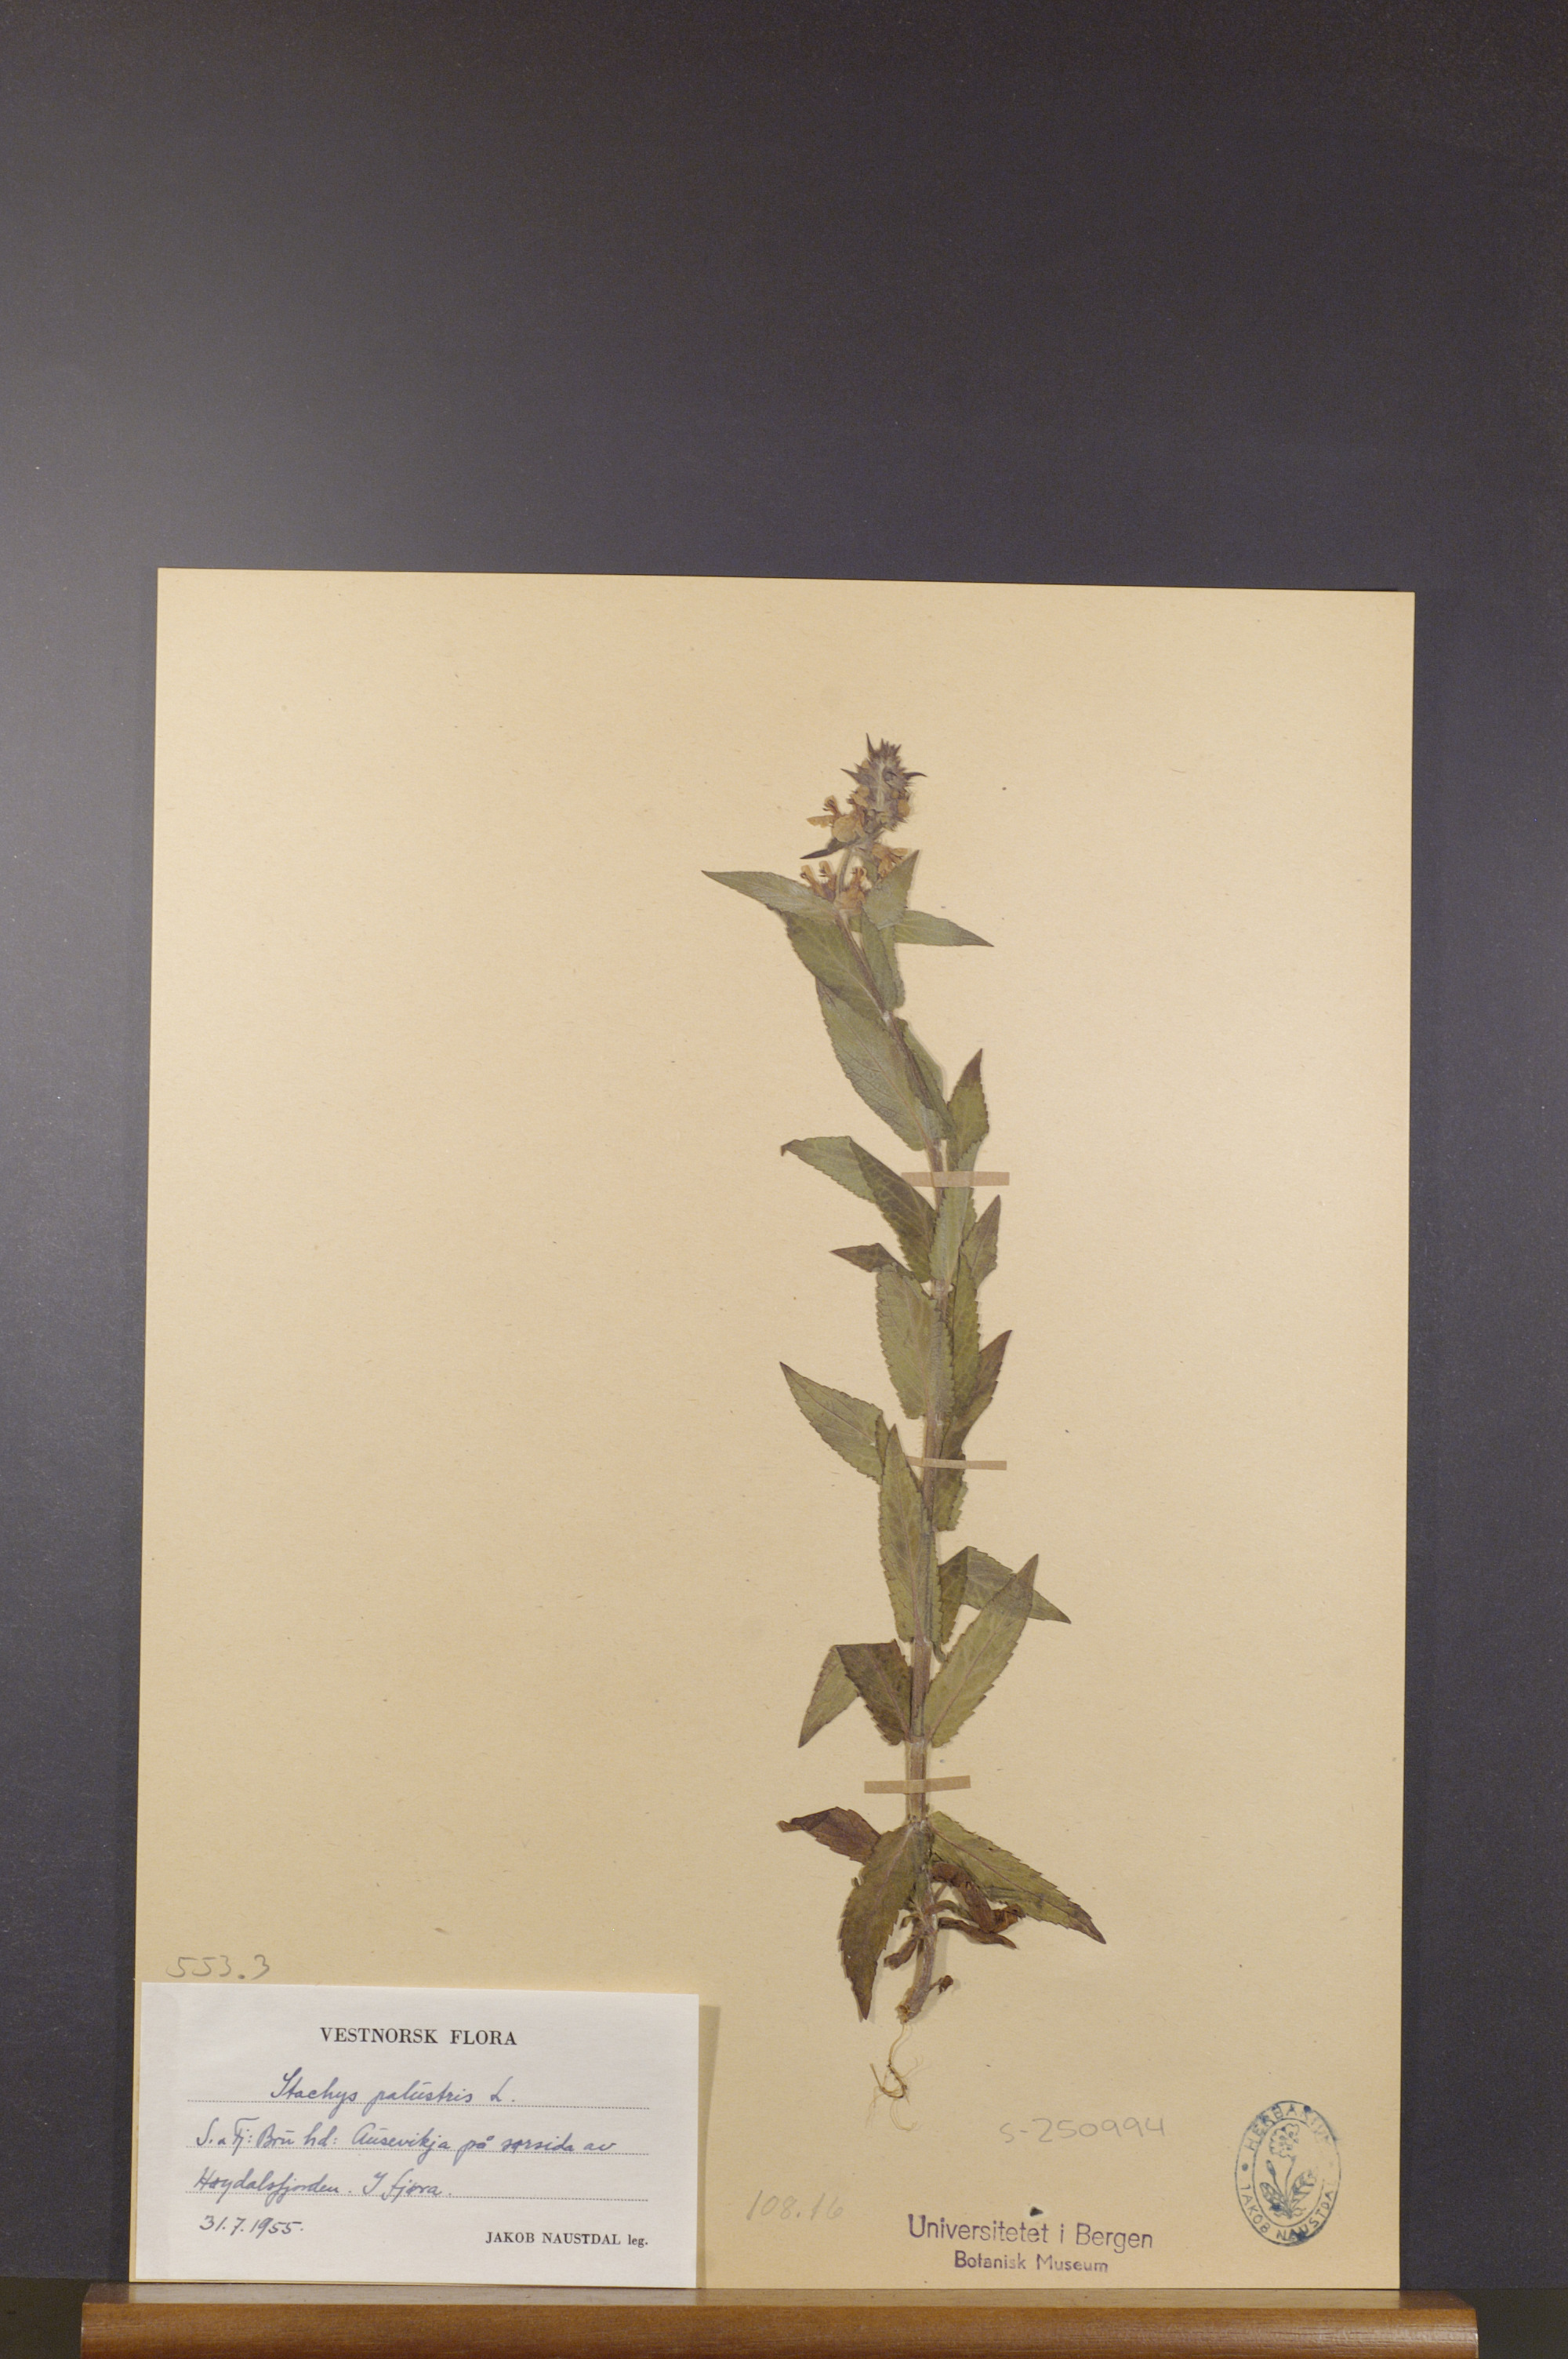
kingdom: Plantae
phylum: Tracheophyta
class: Magnoliopsida
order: Lamiales
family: Lamiaceae
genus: Stachys
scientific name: Stachys palustris
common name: Marsh woundwort
